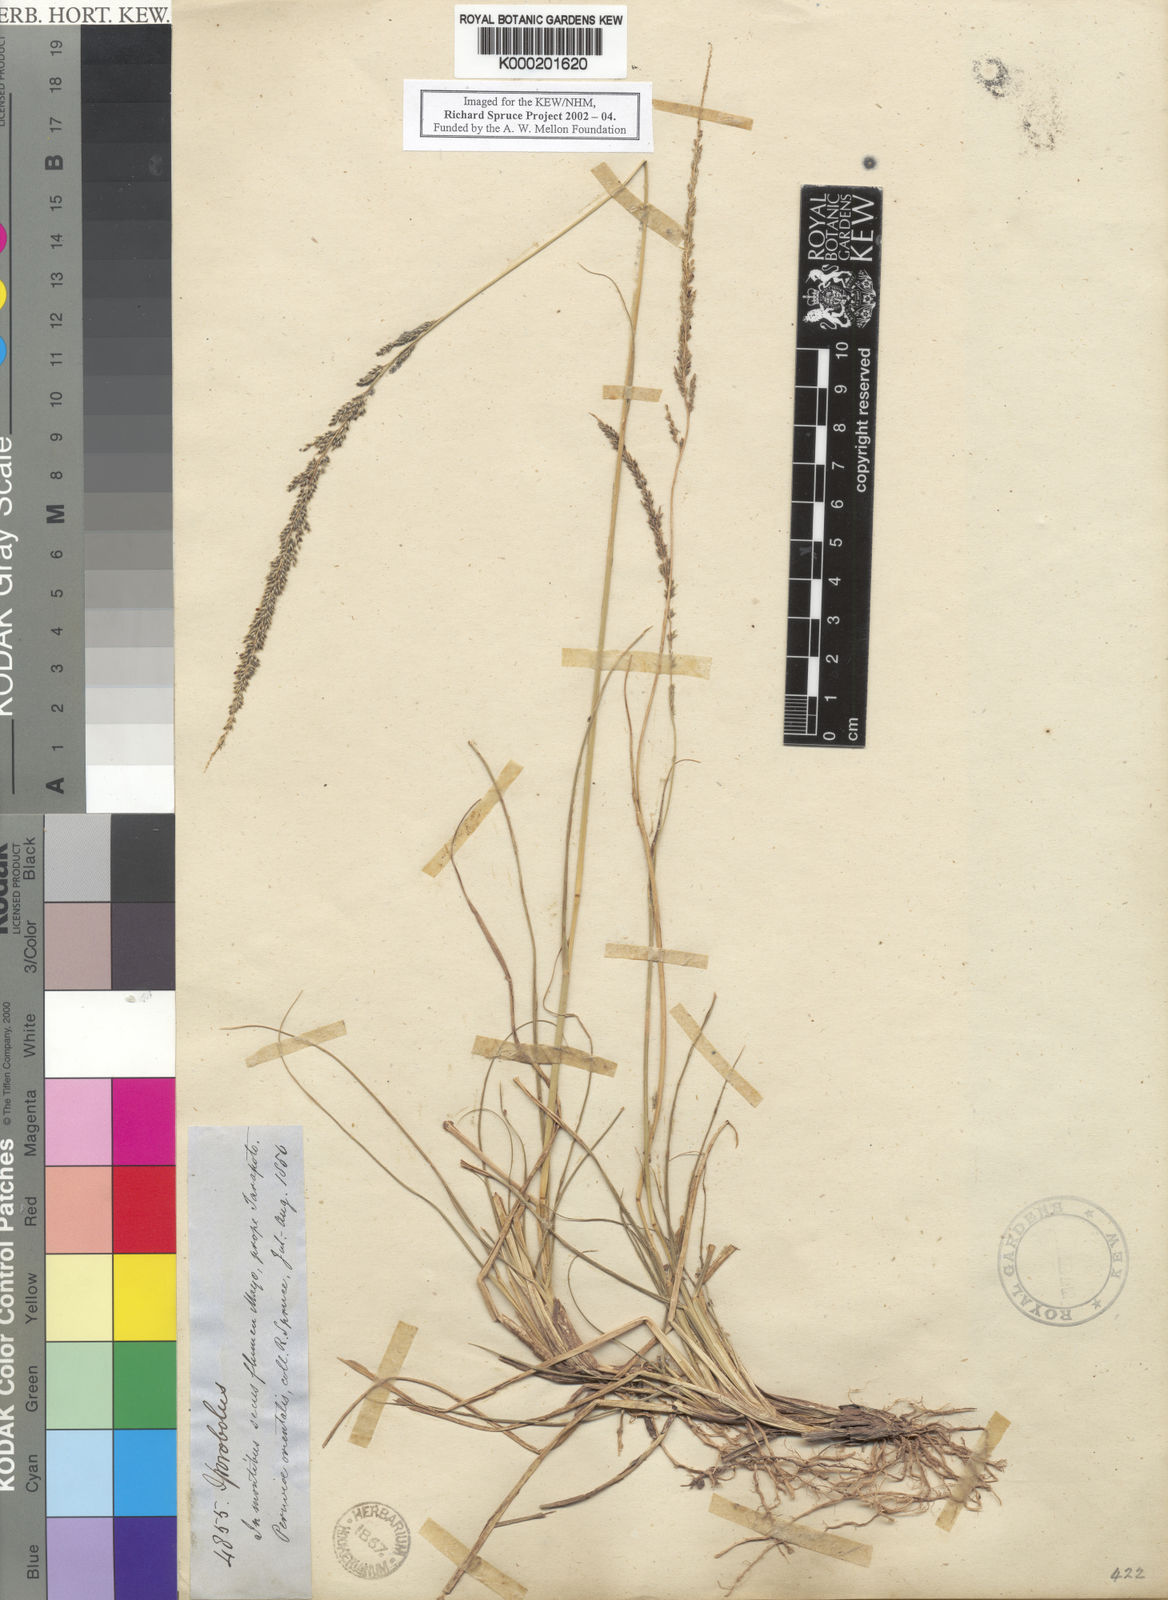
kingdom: Plantae
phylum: Tracheophyta
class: Liliopsida
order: Poales
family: Poaceae
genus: Sporobolus
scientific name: Sporobolus indicus
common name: Smut grass
